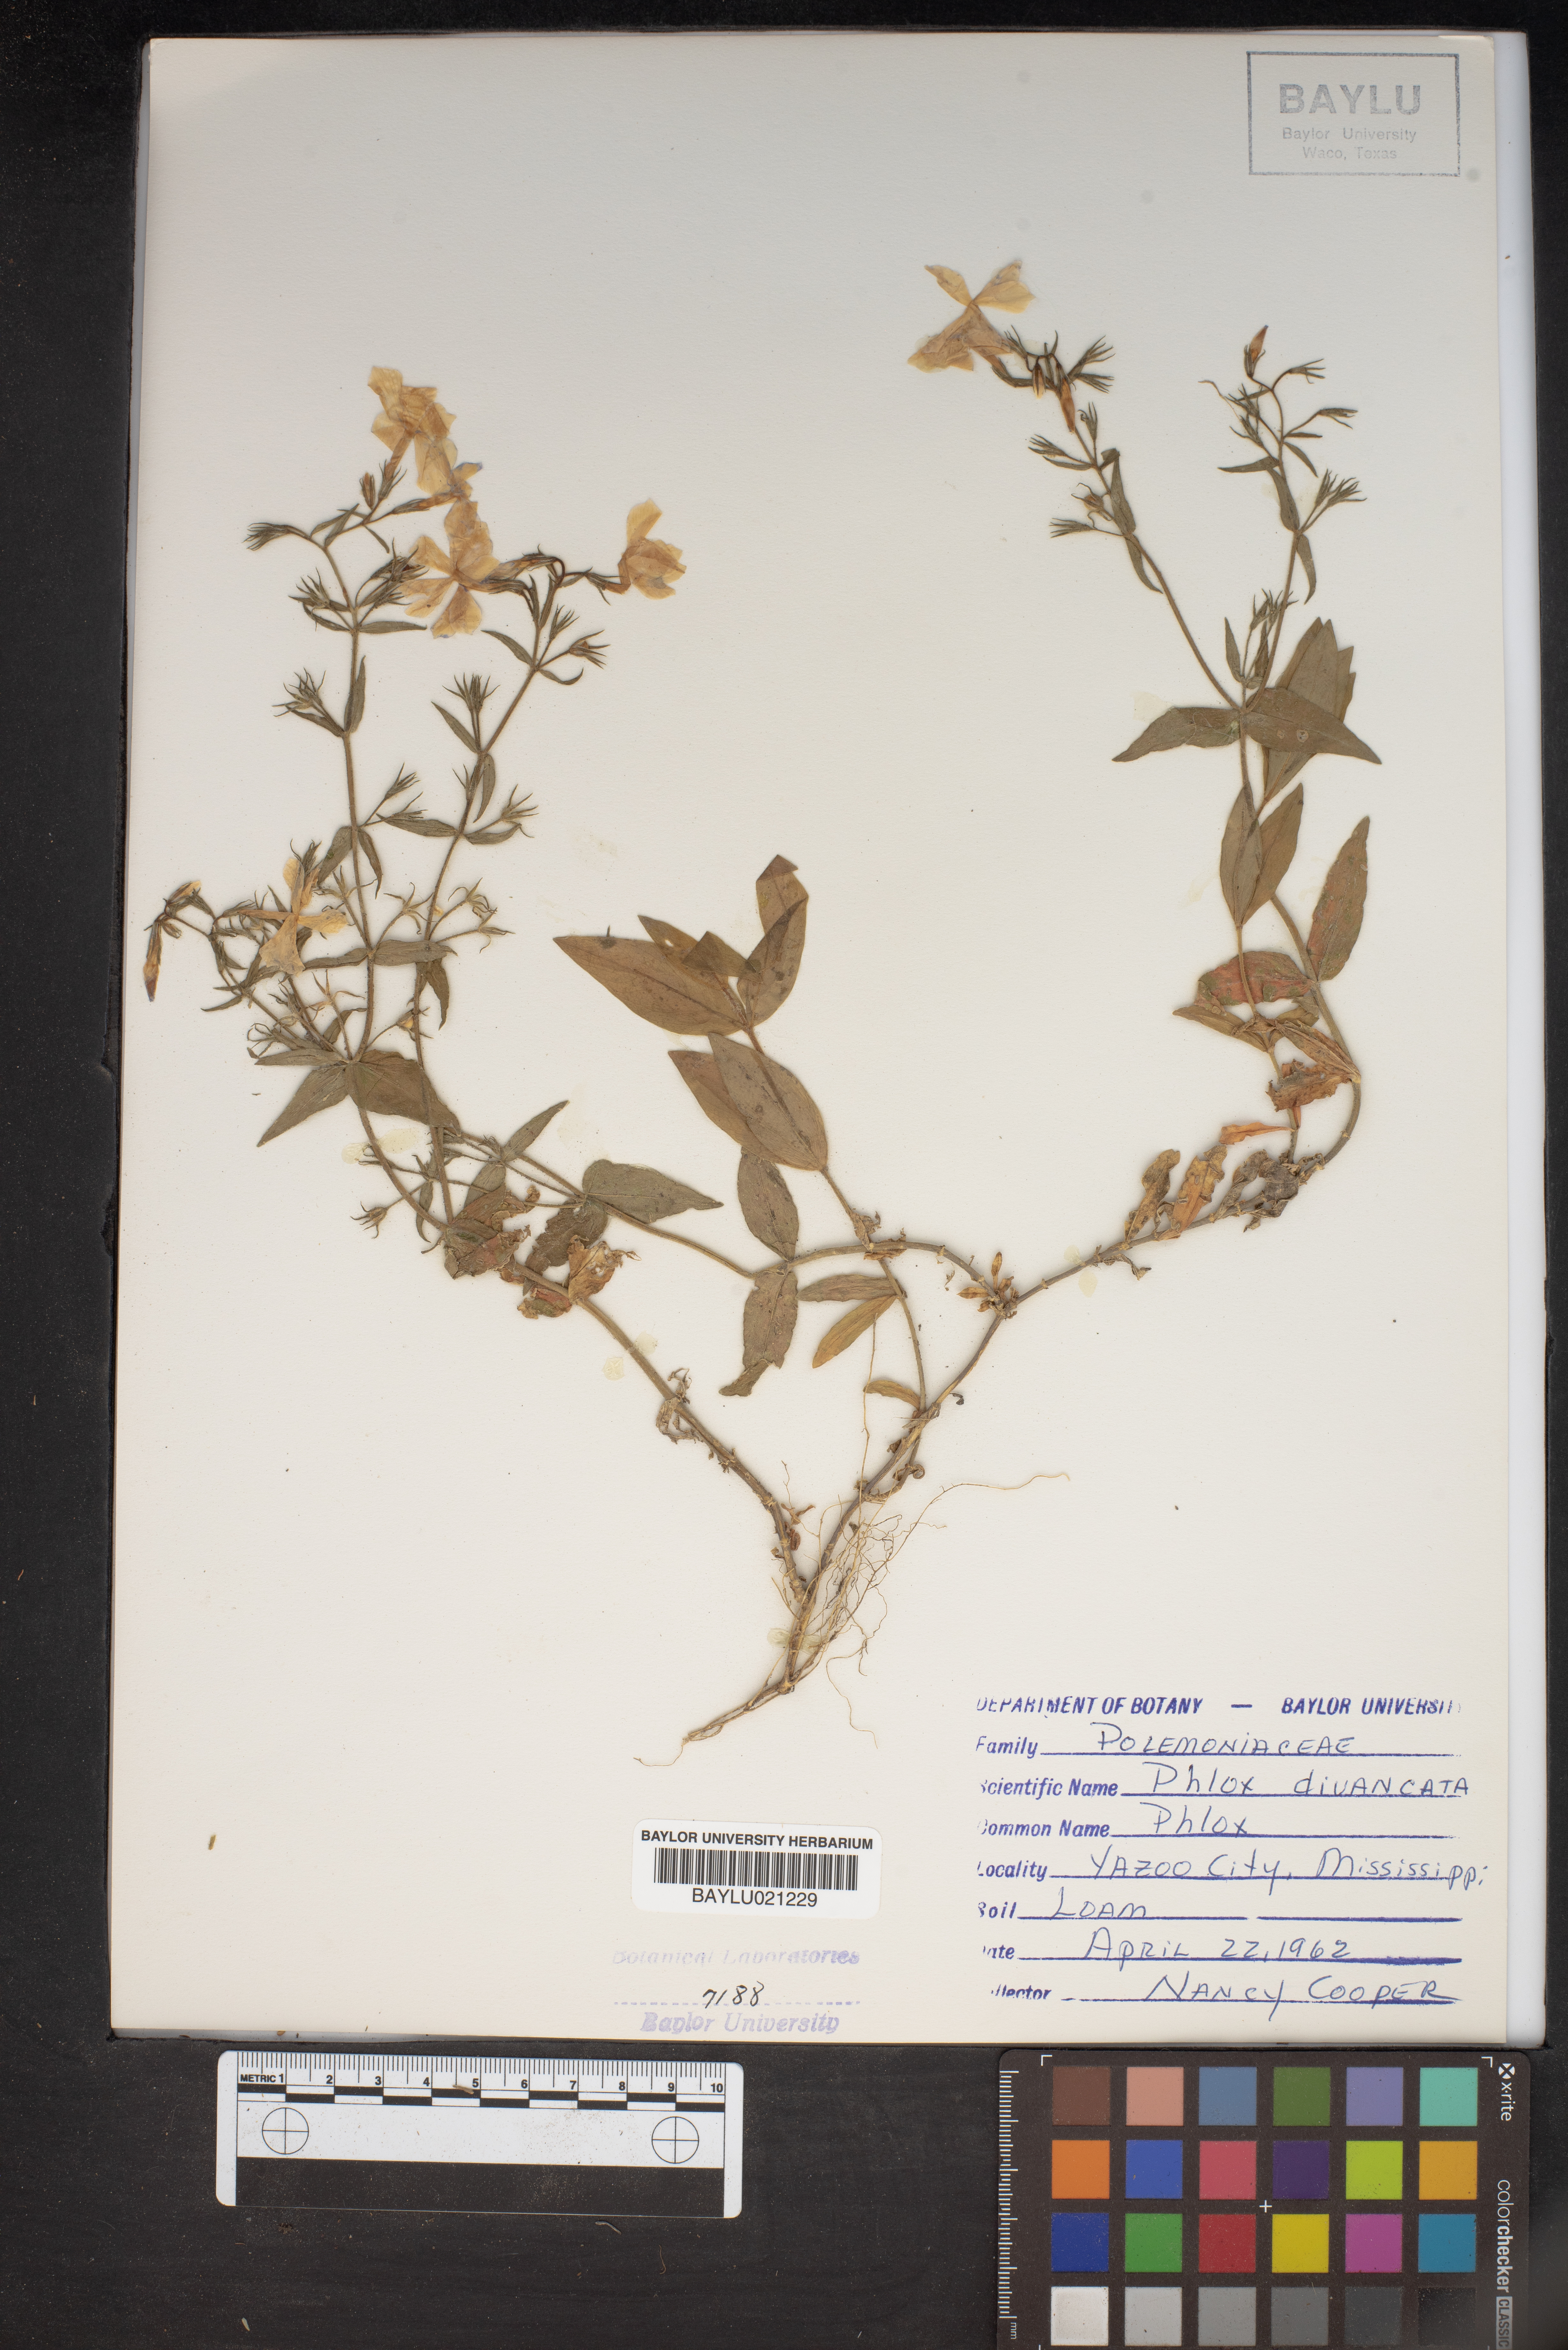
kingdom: Plantae
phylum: Tracheophyta
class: Magnoliopsida
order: Ericales
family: Polemoniaceae
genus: Phlox
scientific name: Phlox divaricata
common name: Blue phlox
